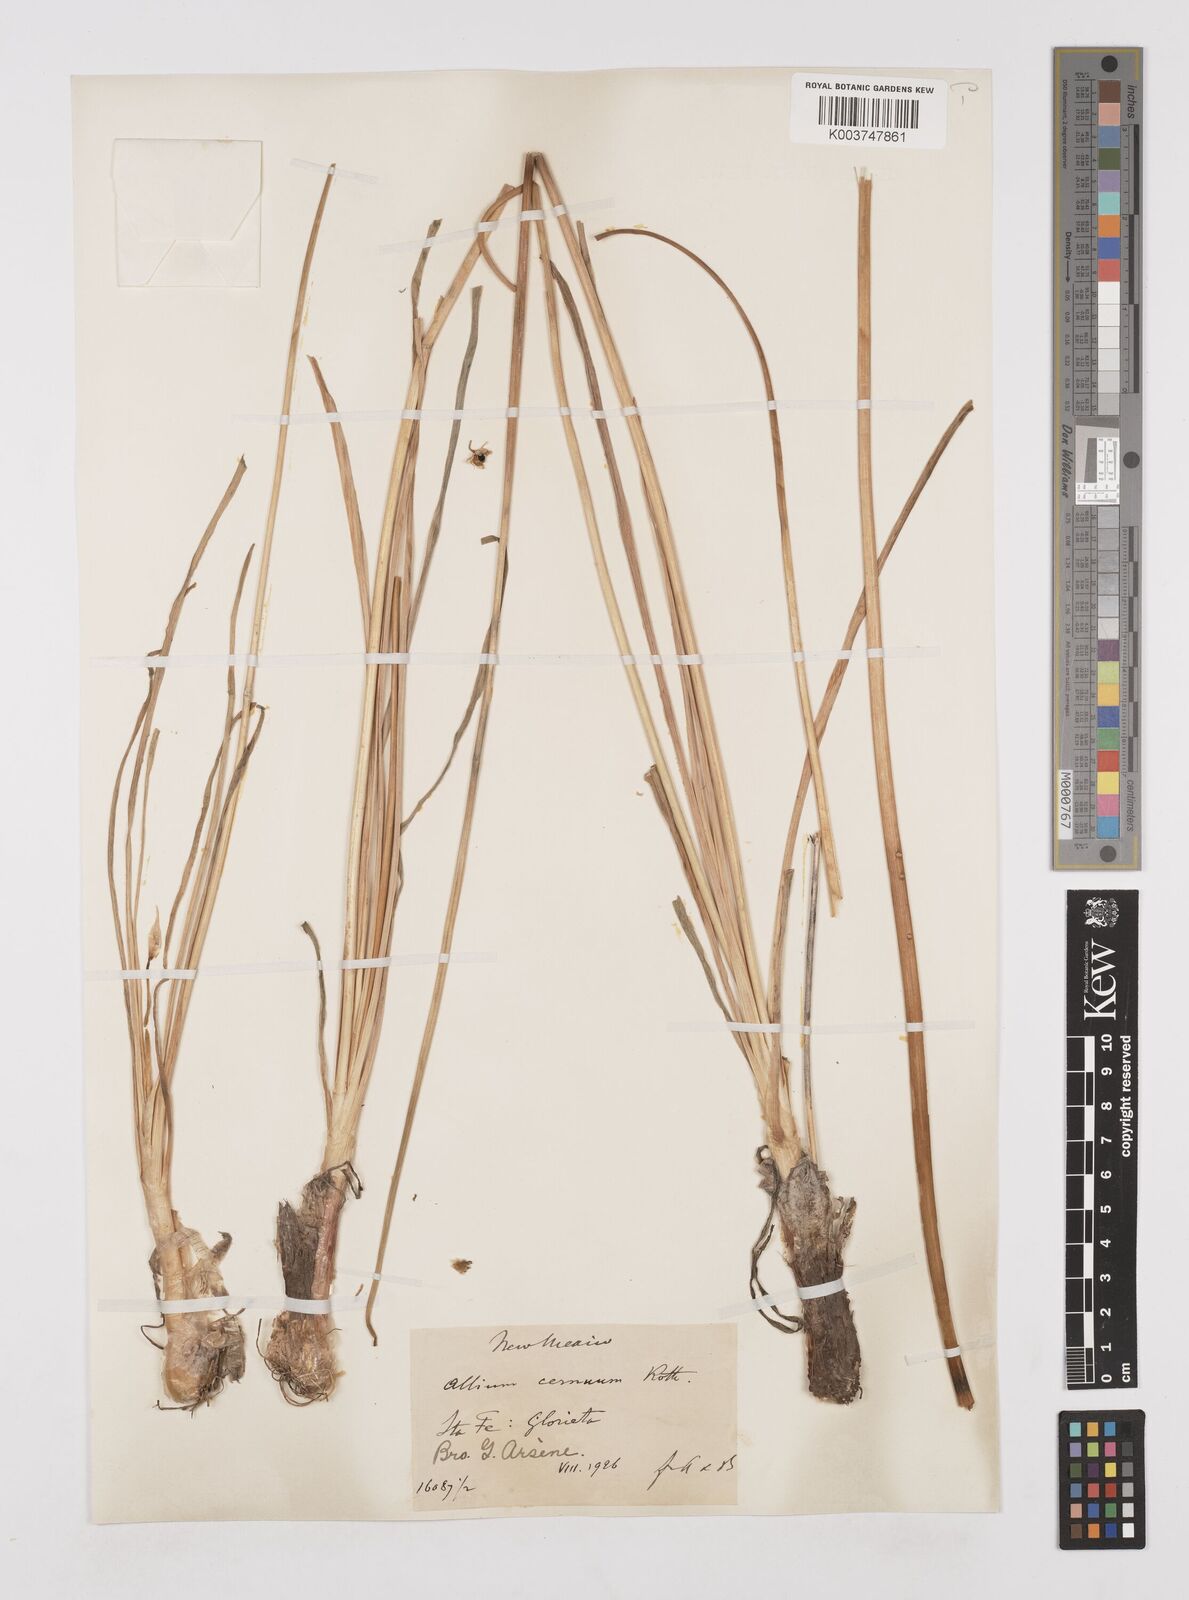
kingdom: Plantae
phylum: Tracheophyta
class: Liliopsida
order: Asparagales
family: Amaryllidaceae
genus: Allium
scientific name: Allium cernuum
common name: Nodding onion
